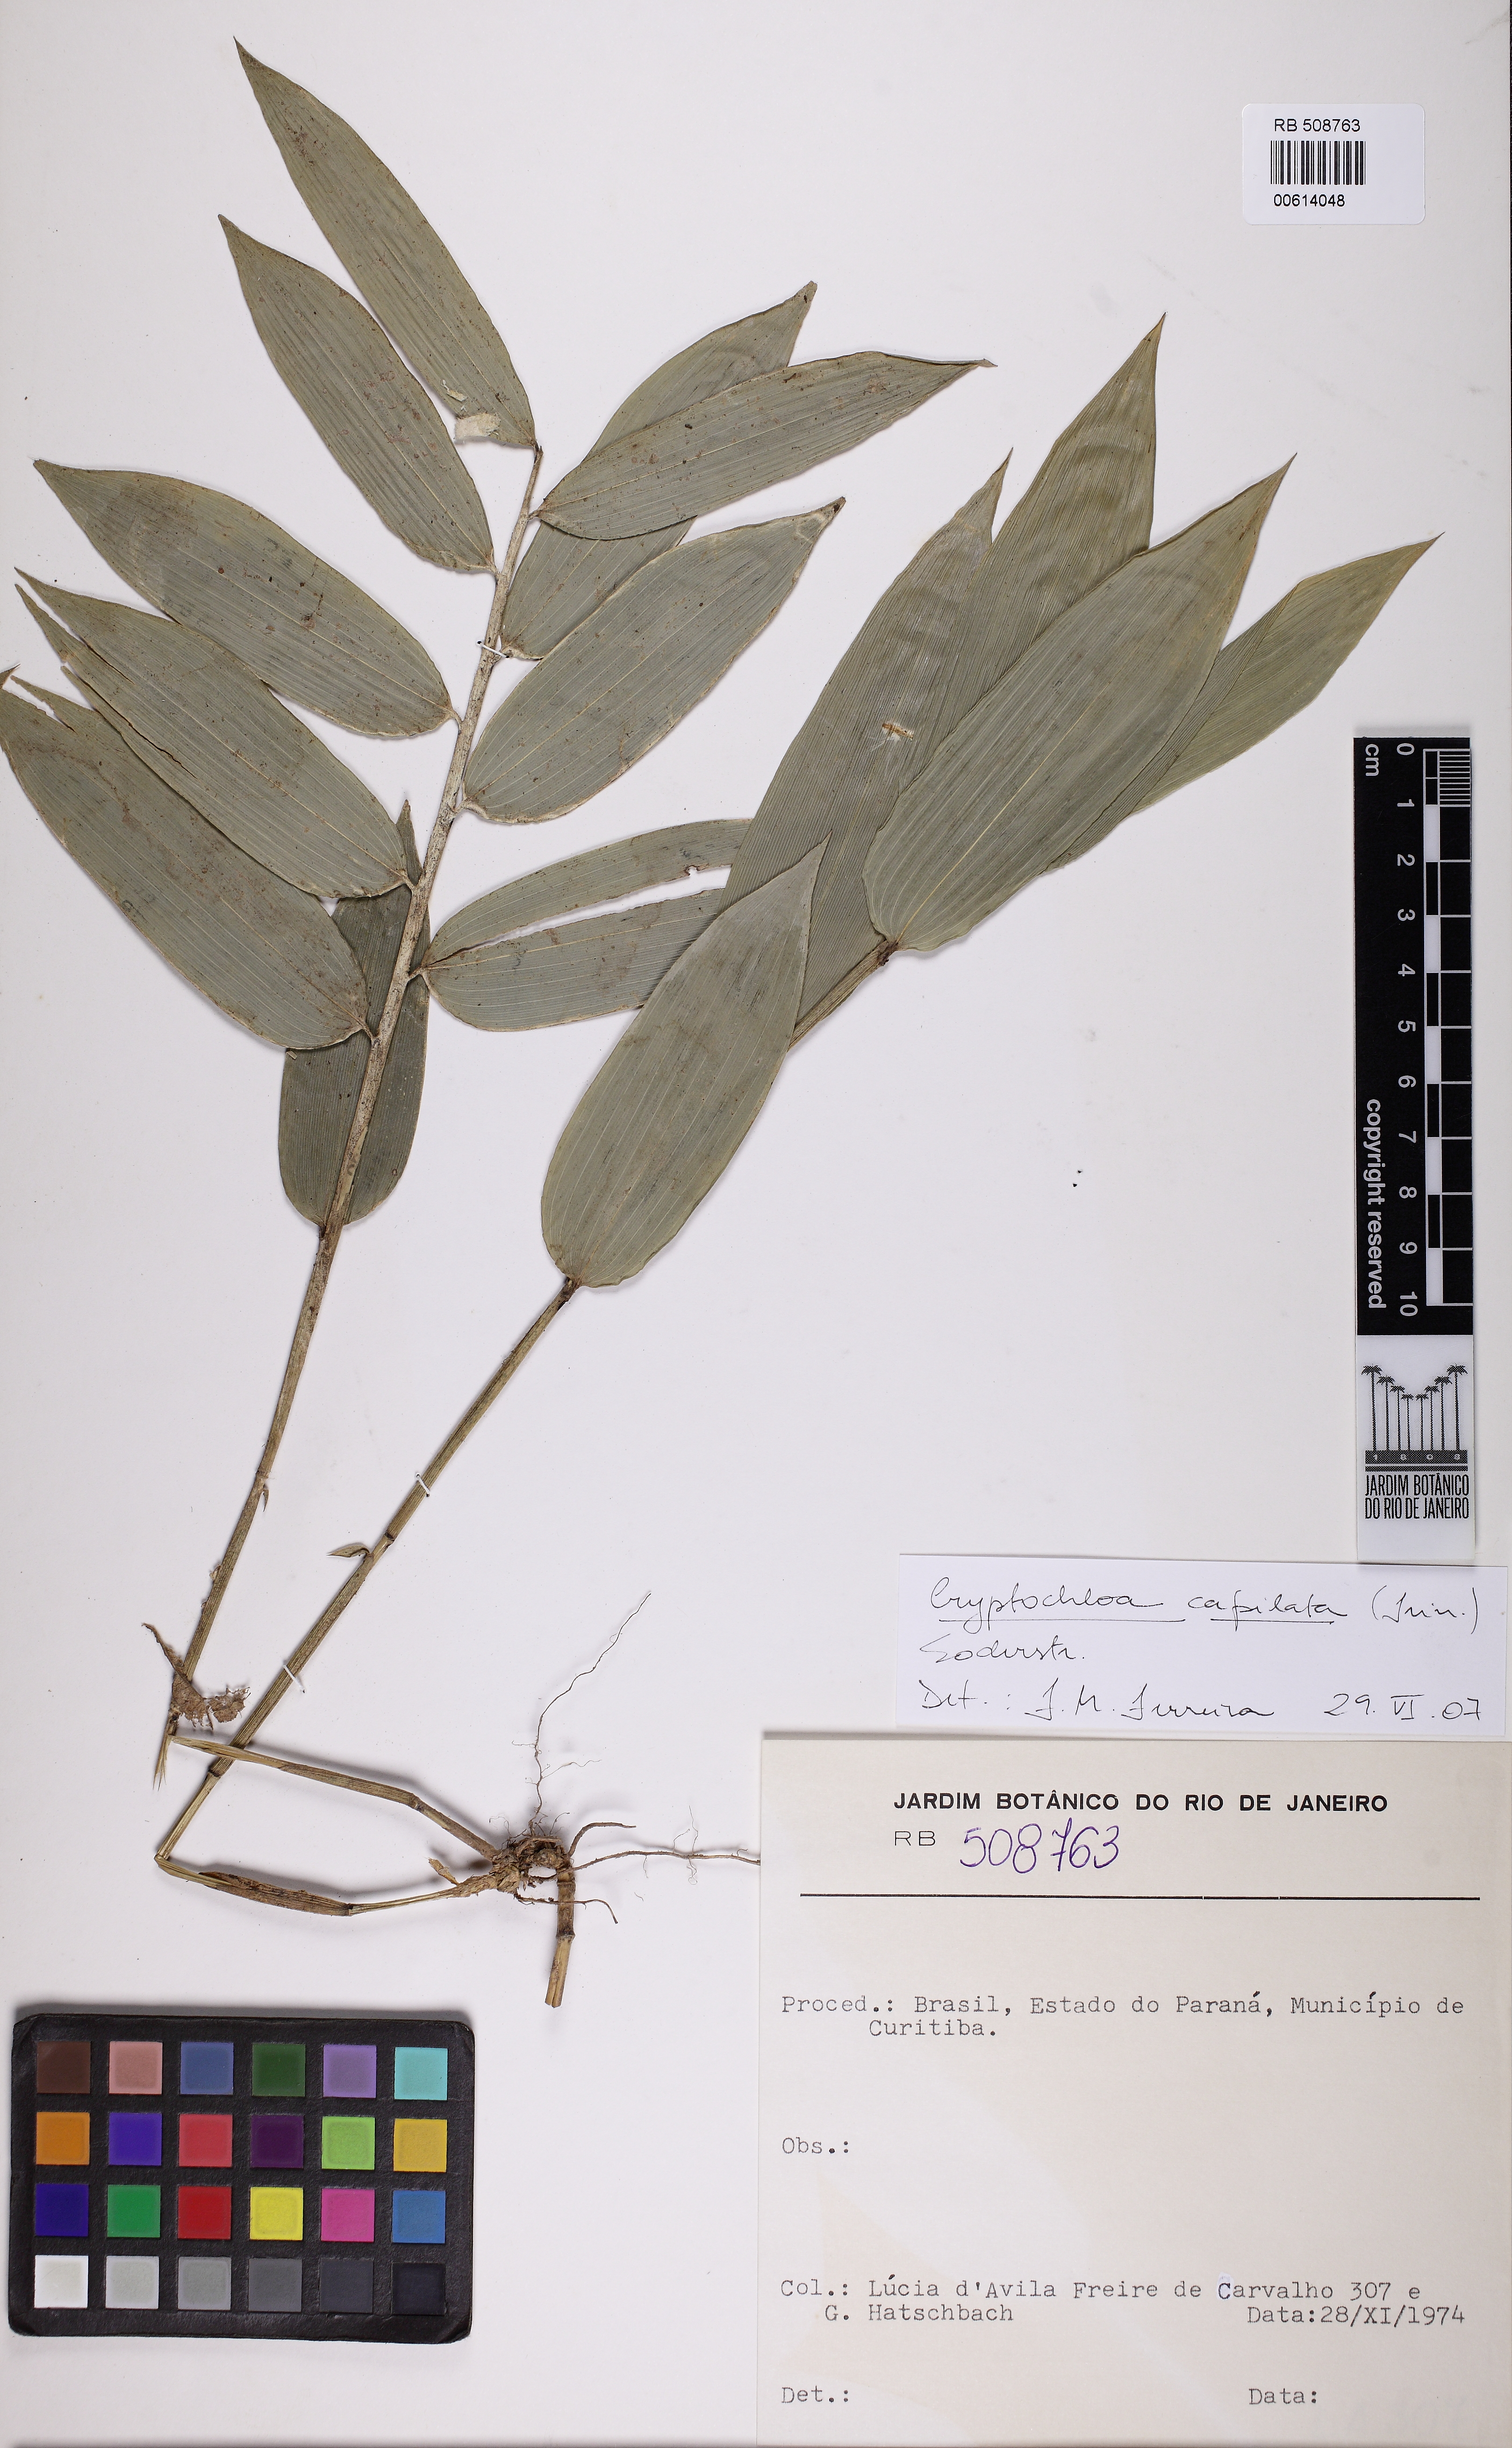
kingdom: Plantae
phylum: Tracheophyta
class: Liliopsida
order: Poales
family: Poaceae
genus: Cryptochloa
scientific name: Cryptochloa capillata
